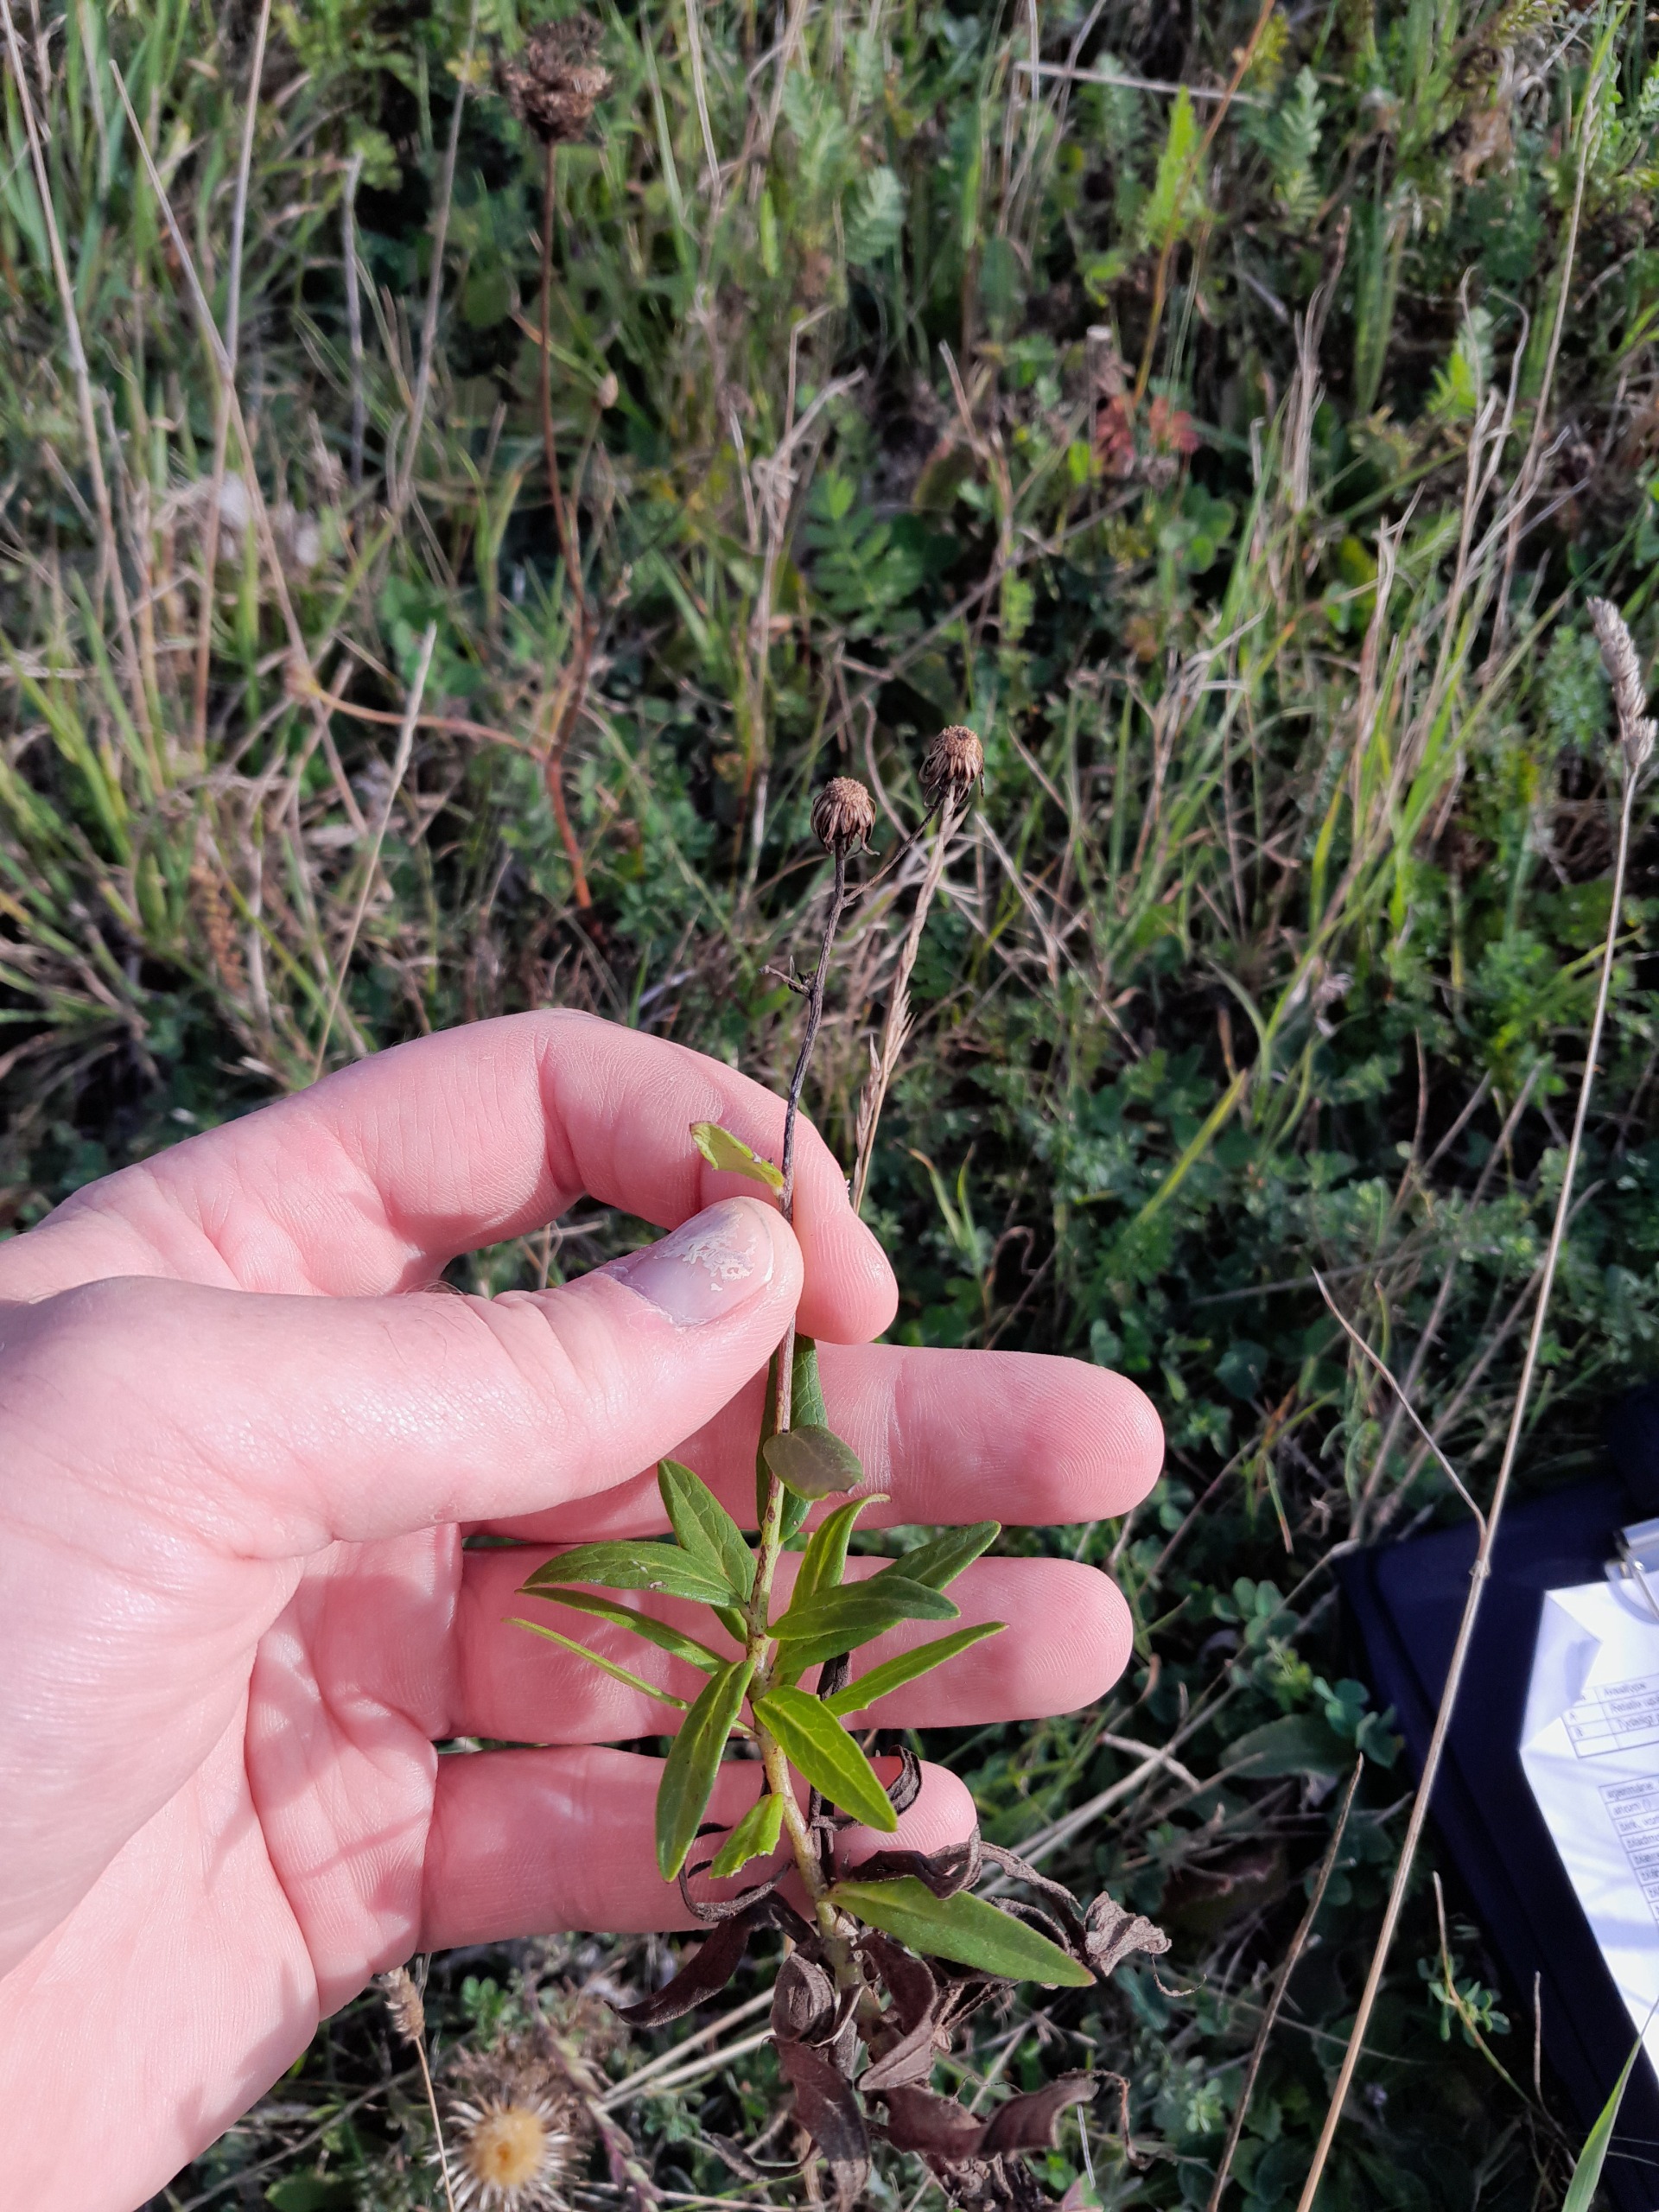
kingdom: Plantae
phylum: Tracheophyta
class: Magnoliopsida
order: Asterales
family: Asteraceae
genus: Hieracium
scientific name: Hieracium umbellatum
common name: Smalbladet høgeurt
